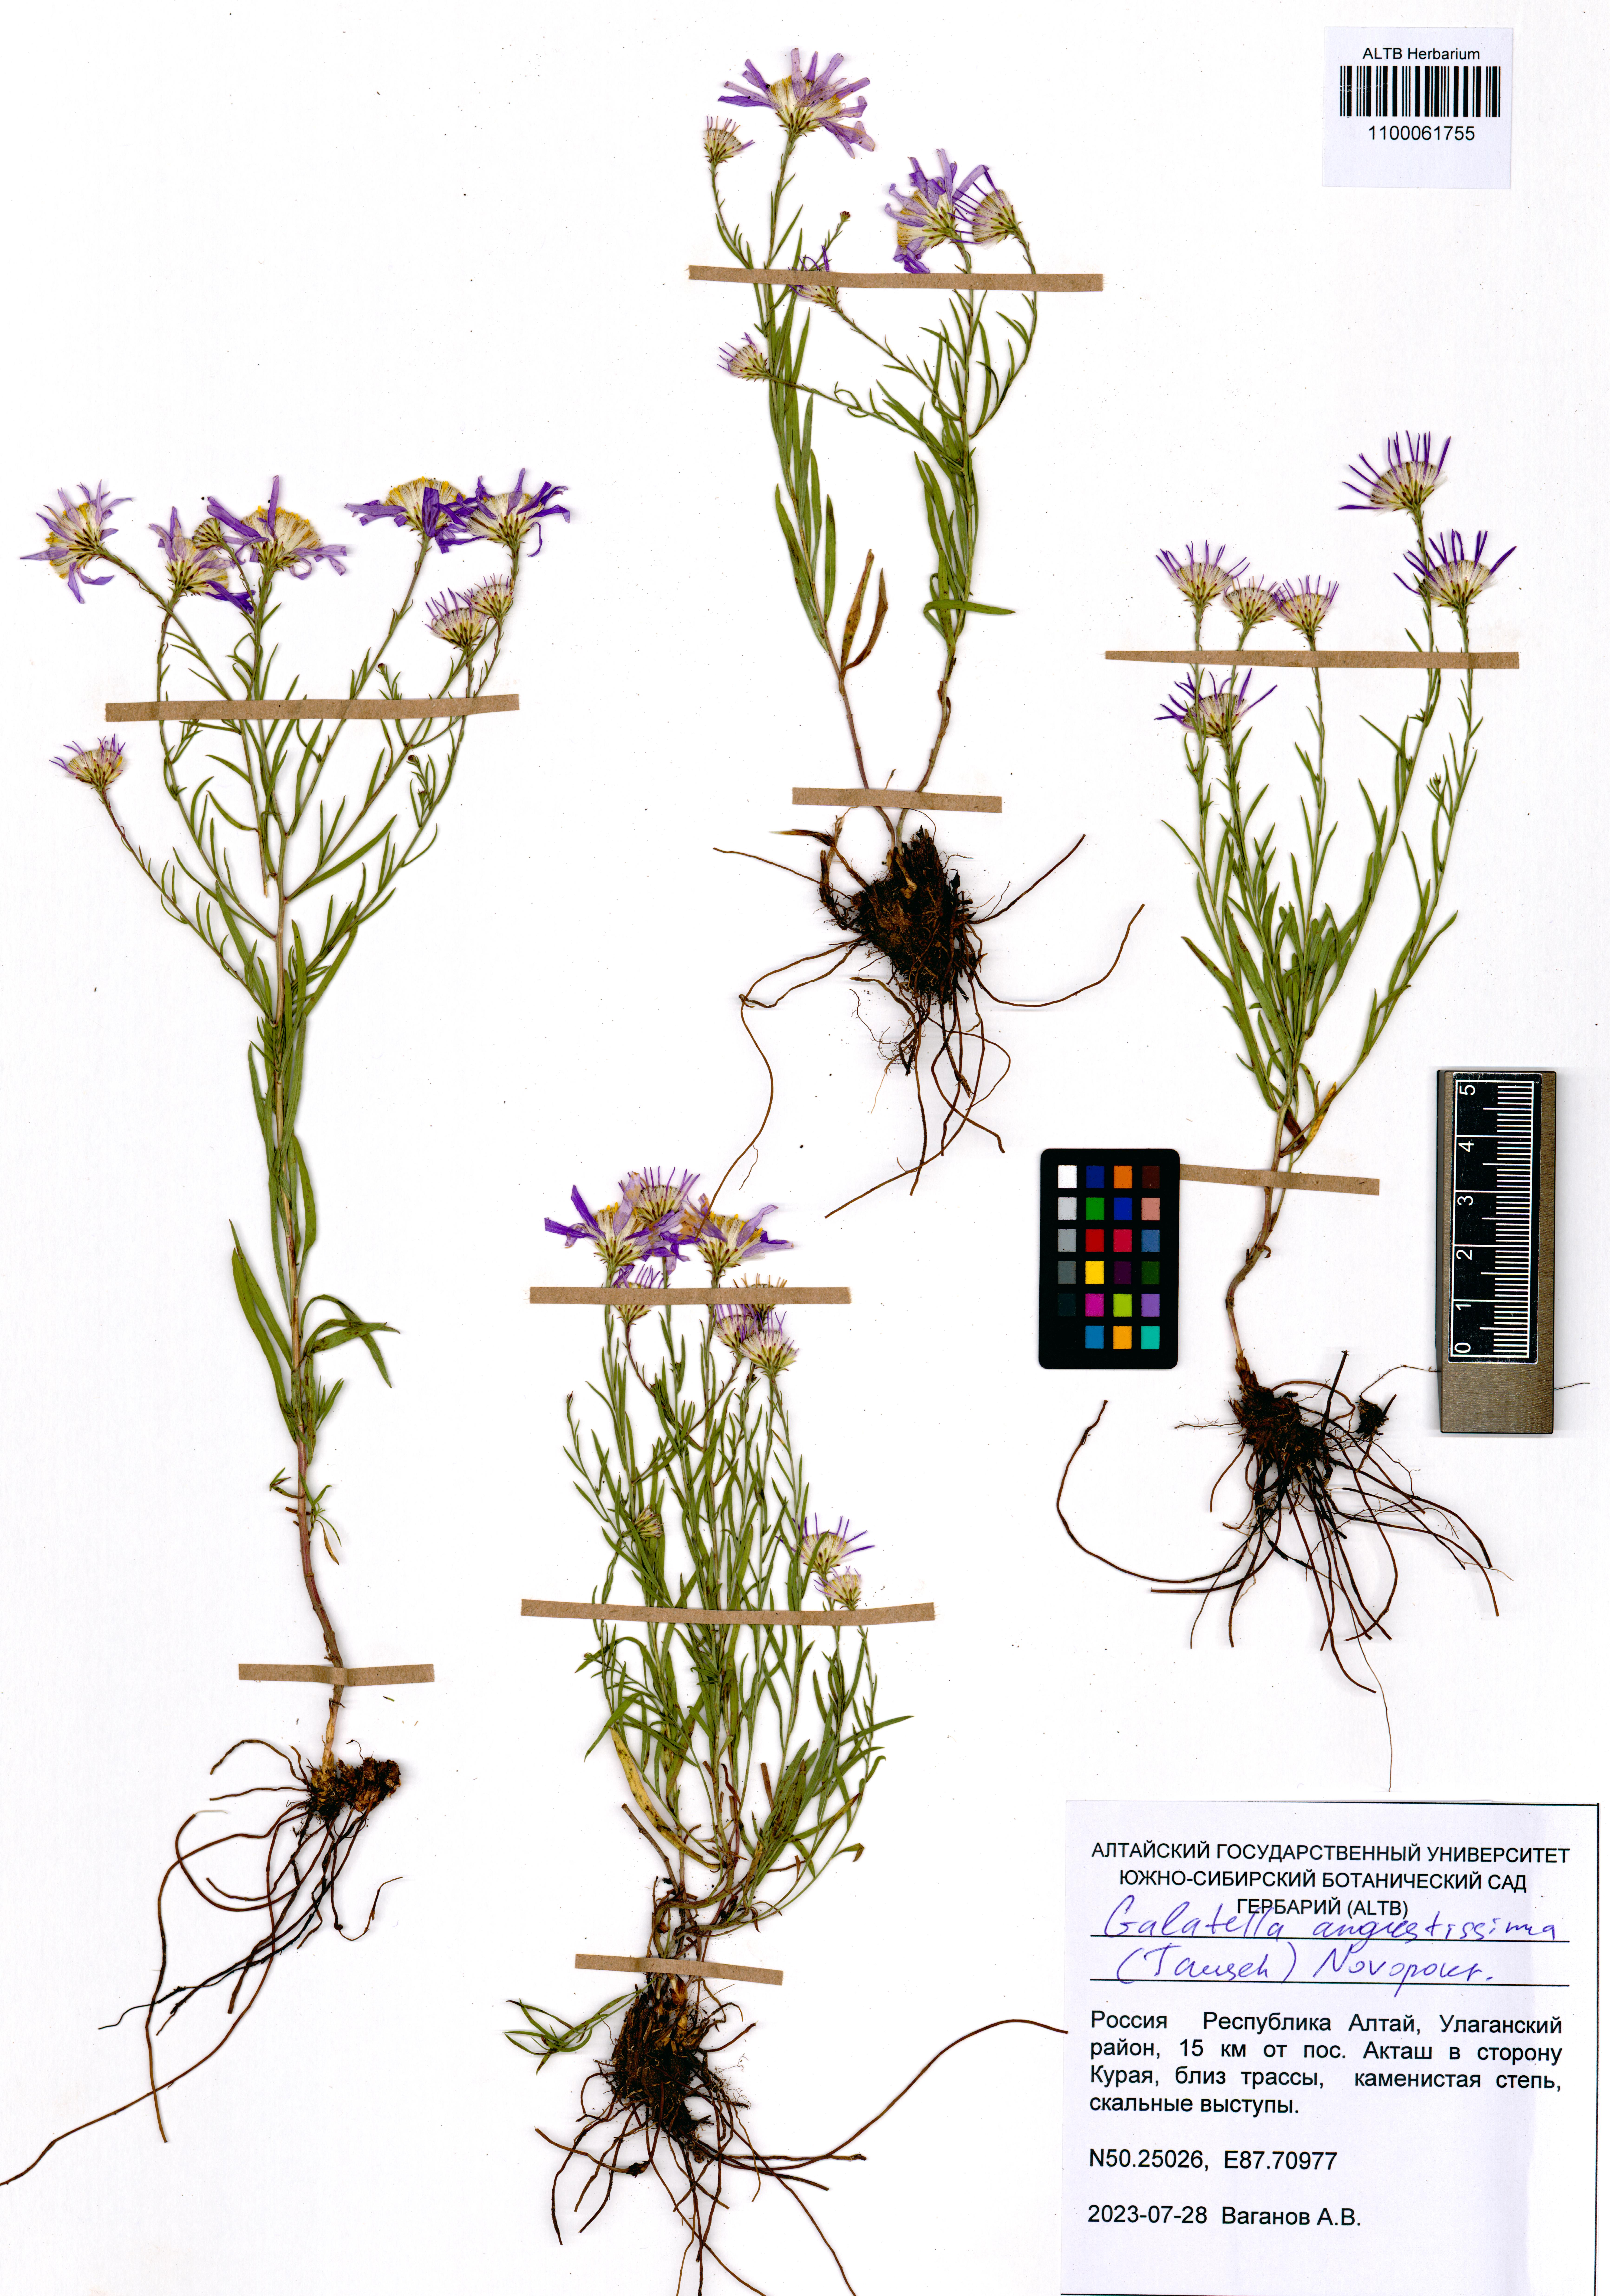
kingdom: Plantae
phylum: Tracheophyta
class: Magnoliopsida
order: Asterales
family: Asteraceae
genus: Galatella
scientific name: Galatella angustissima
